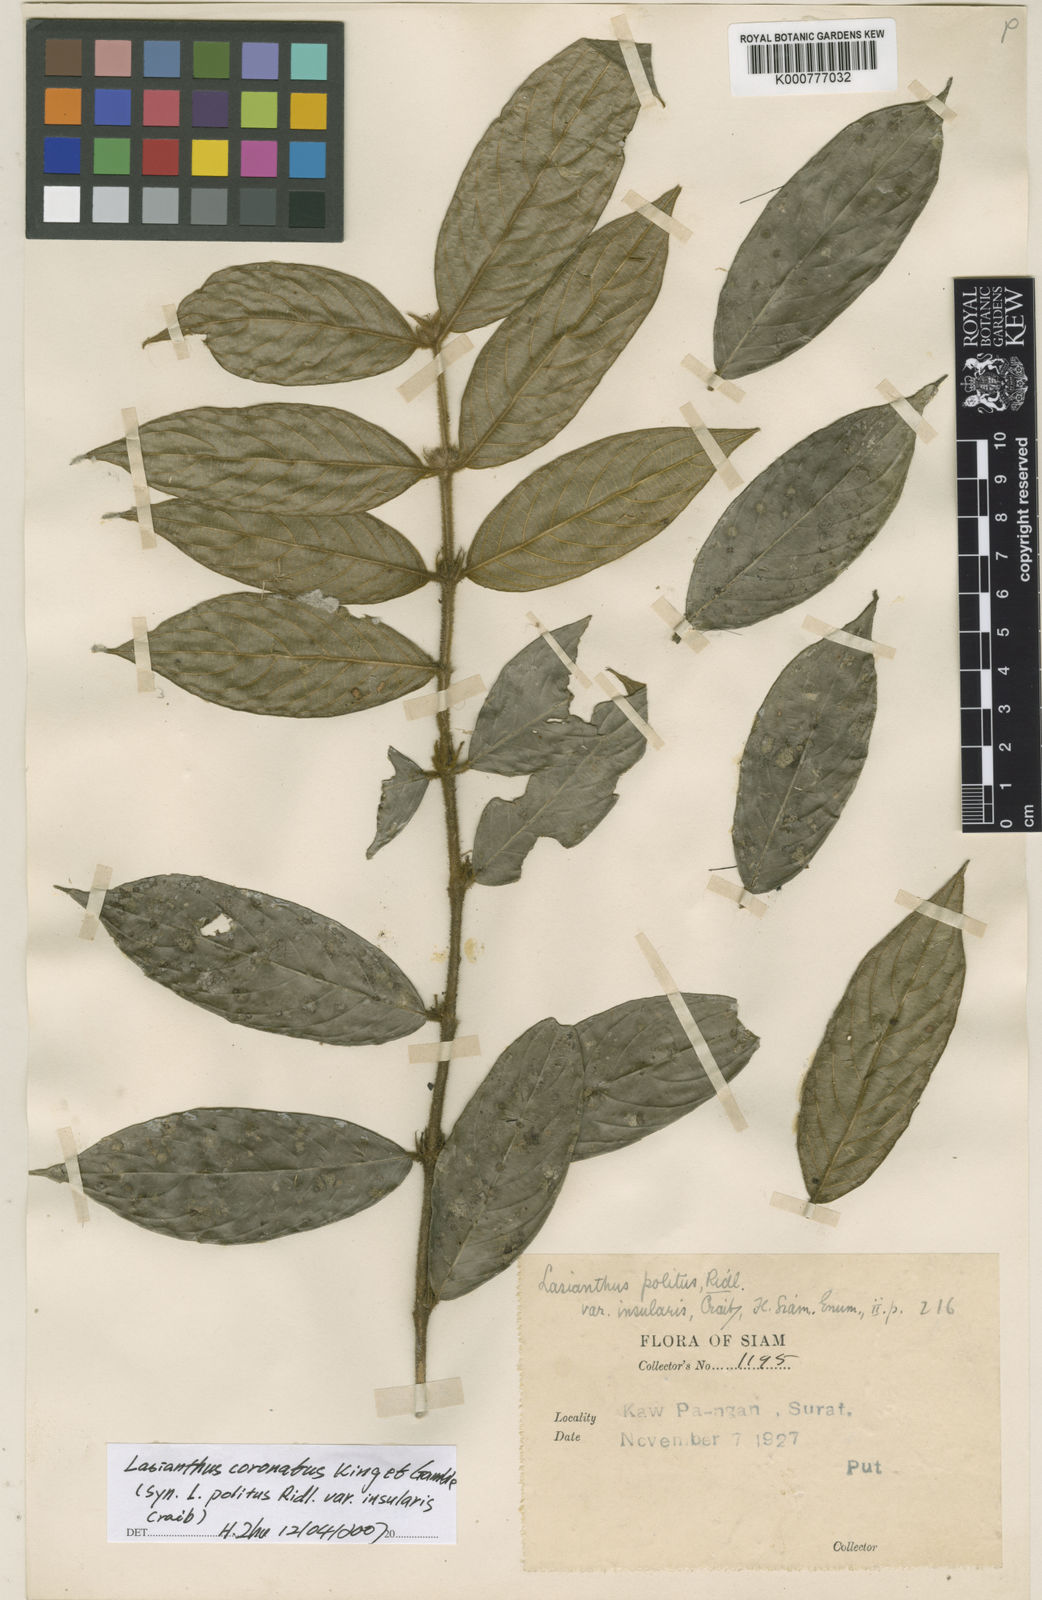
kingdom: Plantae
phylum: Tracheophyta
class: Magnoliopsida
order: Gentianales
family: Rubiaceae
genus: Lasianthus
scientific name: Lasianthus coronatus
